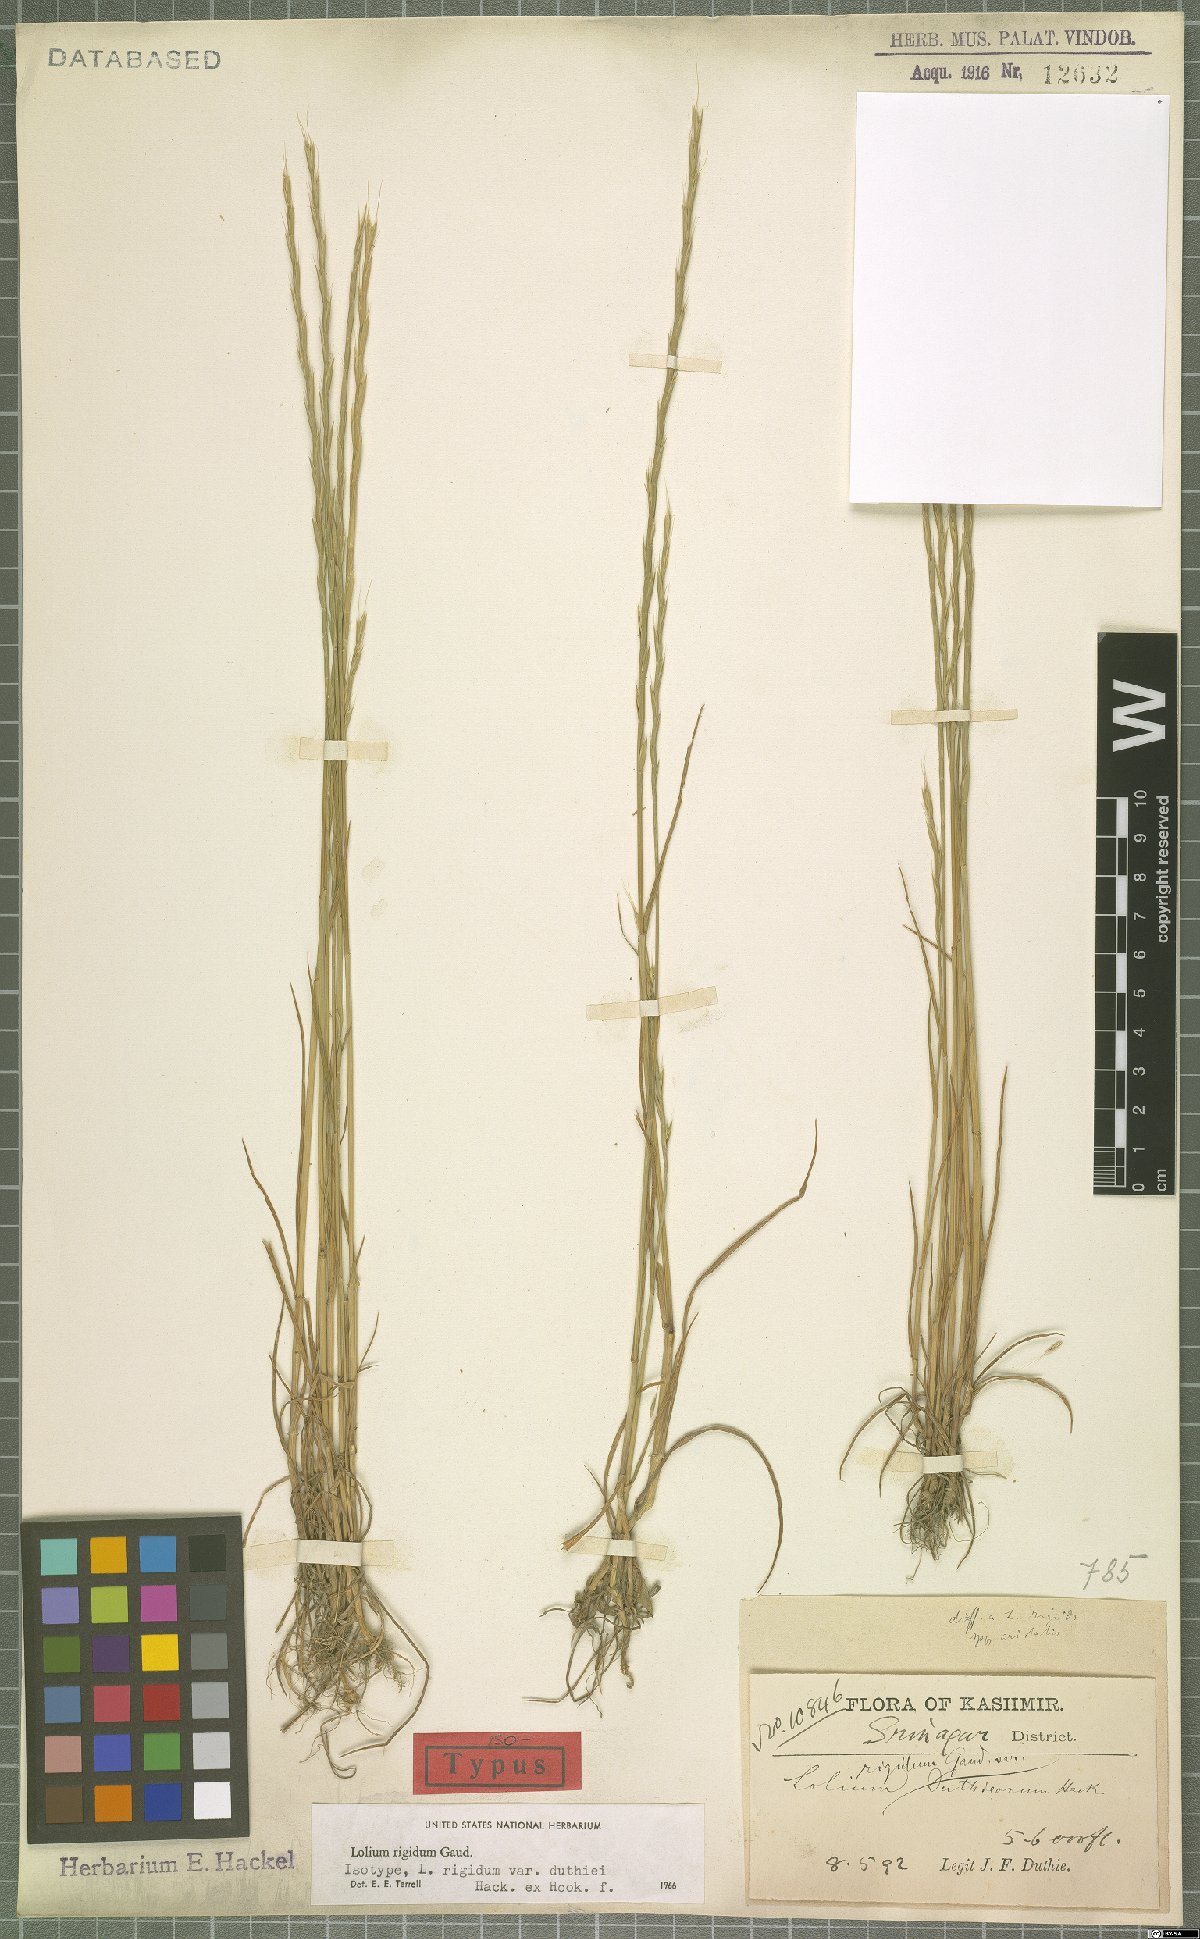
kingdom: Plantae
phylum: Tracheophyta
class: Liliopsida
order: Poales
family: Poaceae
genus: Lolium
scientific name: Lolium rigidum
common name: Wimmera ryegrass
